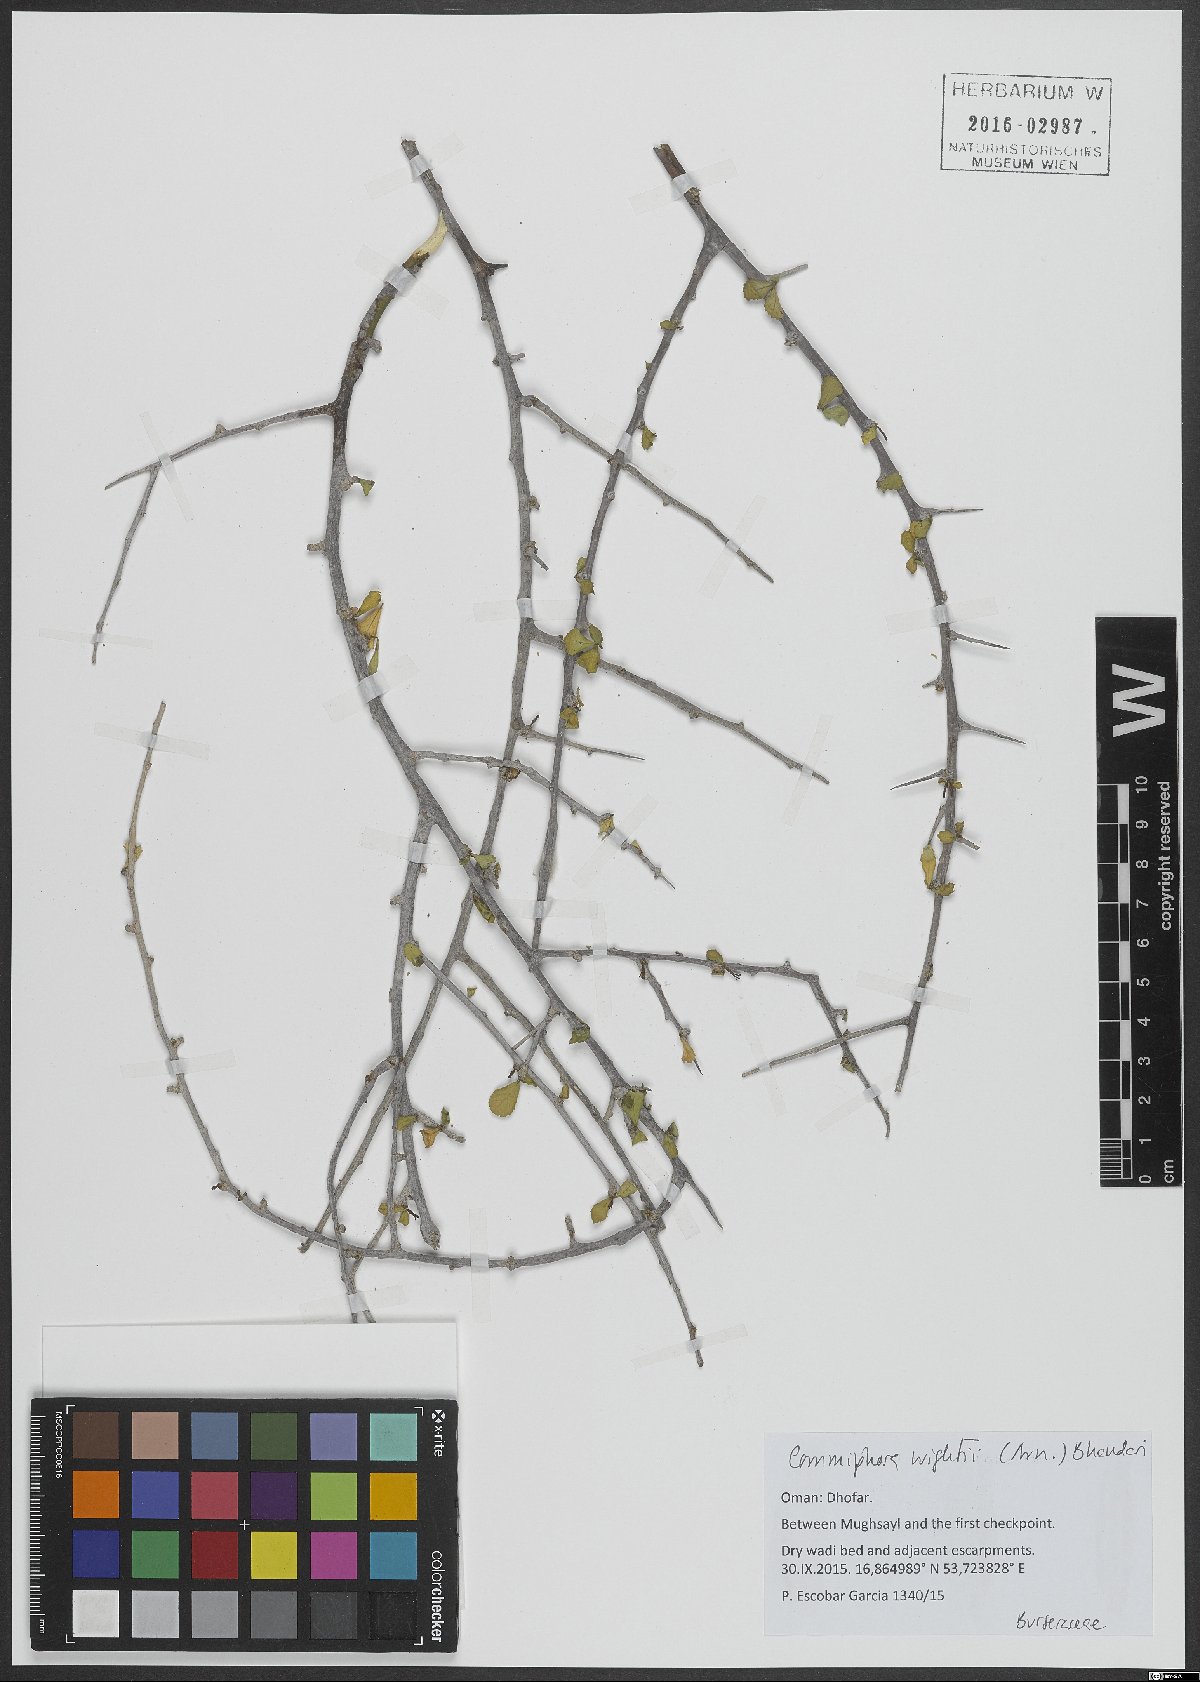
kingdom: Plantae
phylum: Tracheophyta
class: Magnoliopsida
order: Sapindales
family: Burseraceae
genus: Commiphora
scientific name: Commiphora wightii
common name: Indian bdellium-tree
